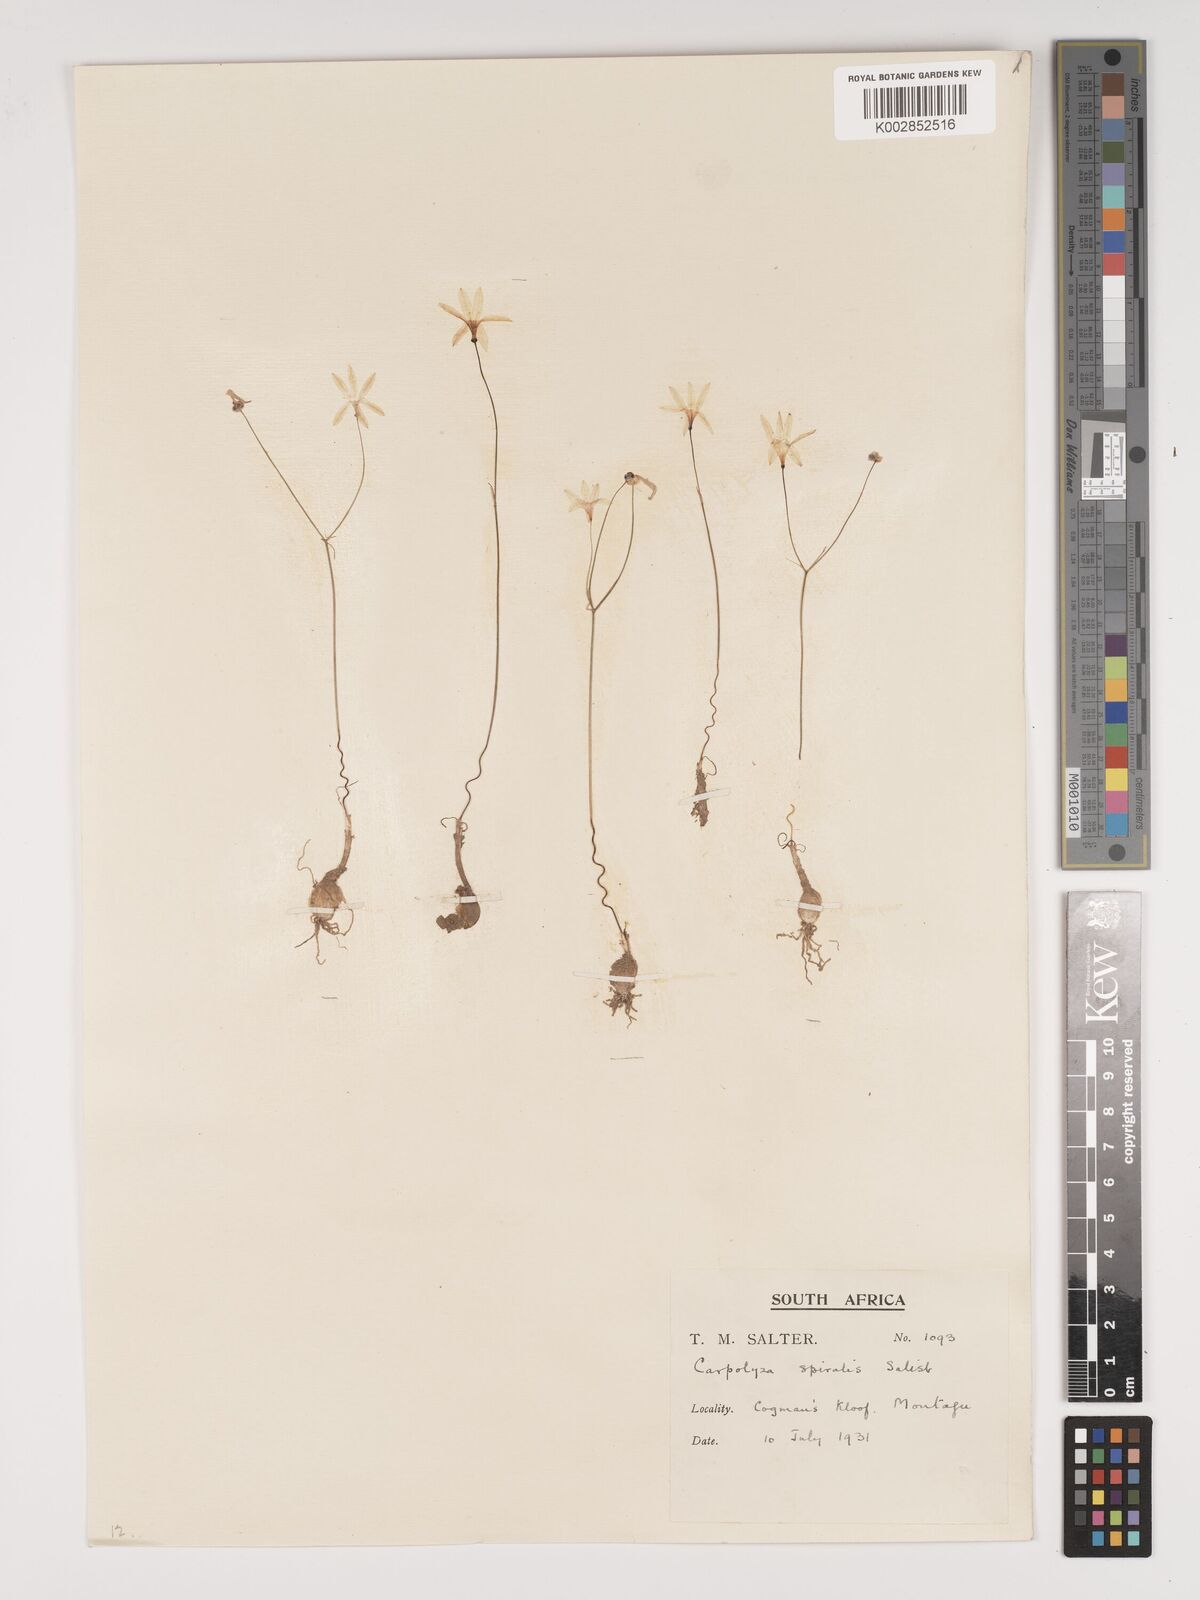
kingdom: Plantae
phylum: Tracheophyta
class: Liliopsida
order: Asparagales
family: Amaryllidaceae
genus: Strumaria
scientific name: Strumaria spiralis
